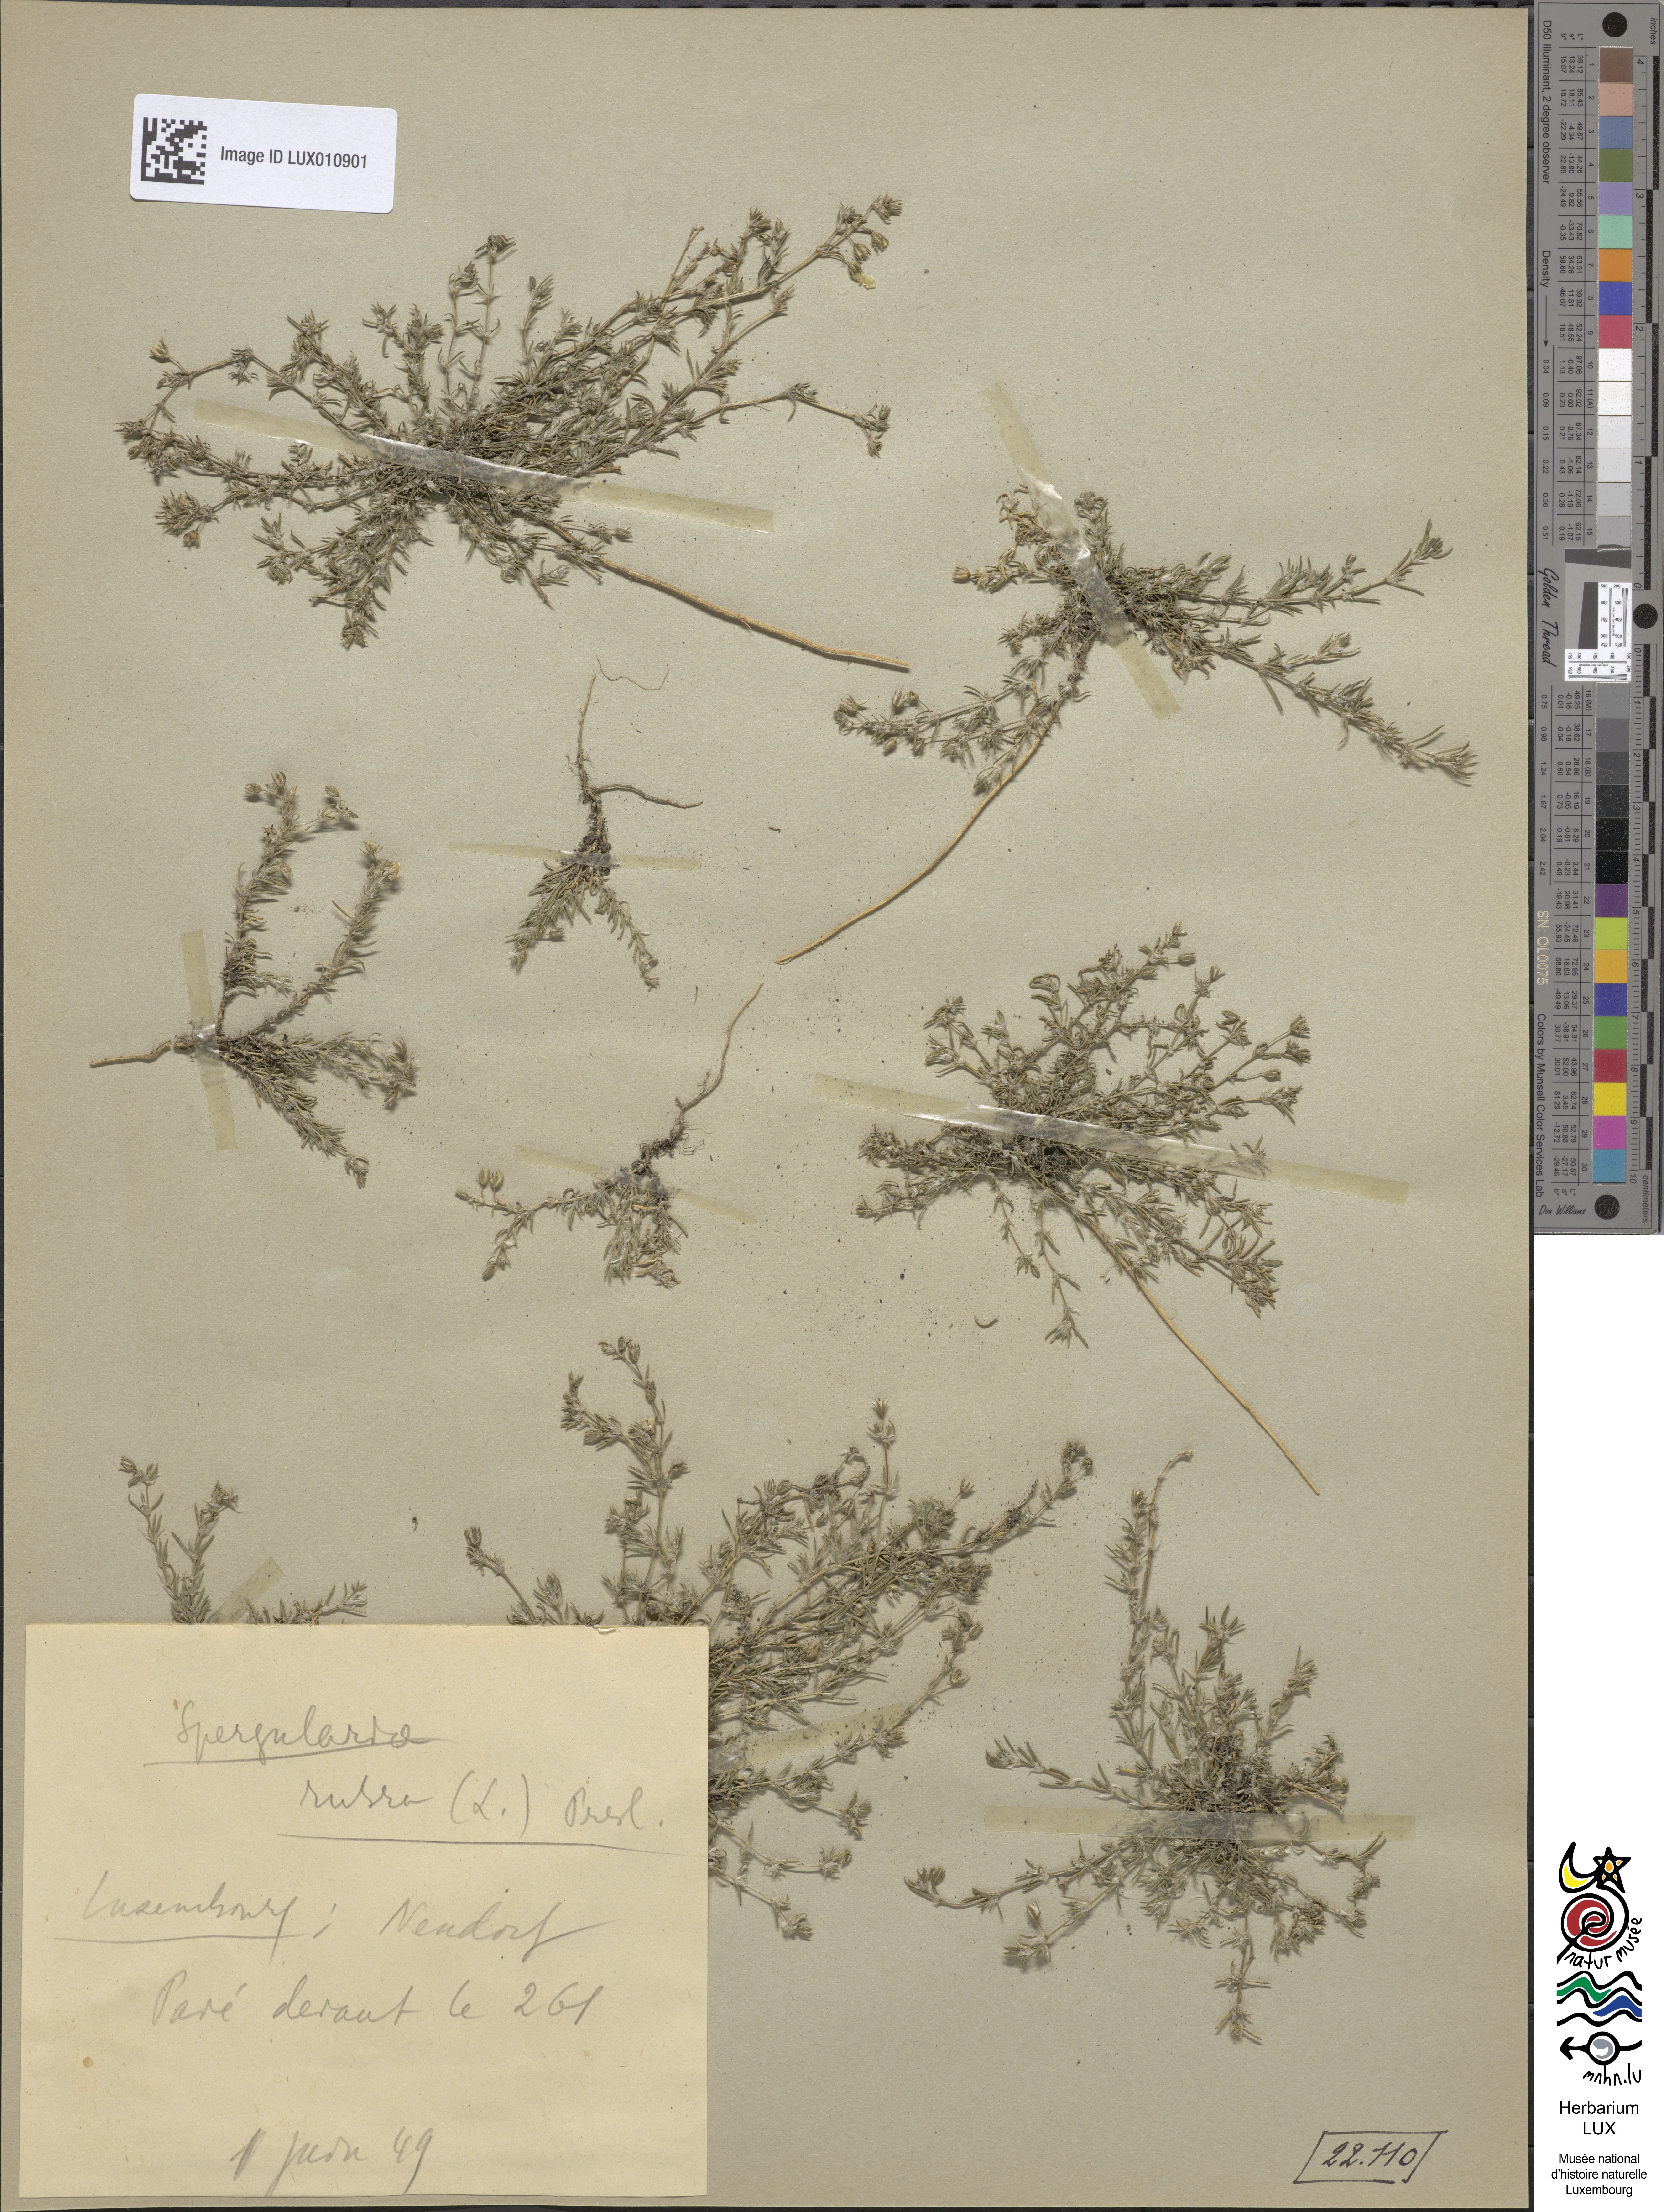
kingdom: Plantae
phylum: Tracheophyta
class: Magnoliopsida
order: Caryophyllales
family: Caryophyllaceae
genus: Spergularia
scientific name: Spergularia rubra
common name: Red sand-spurrey
